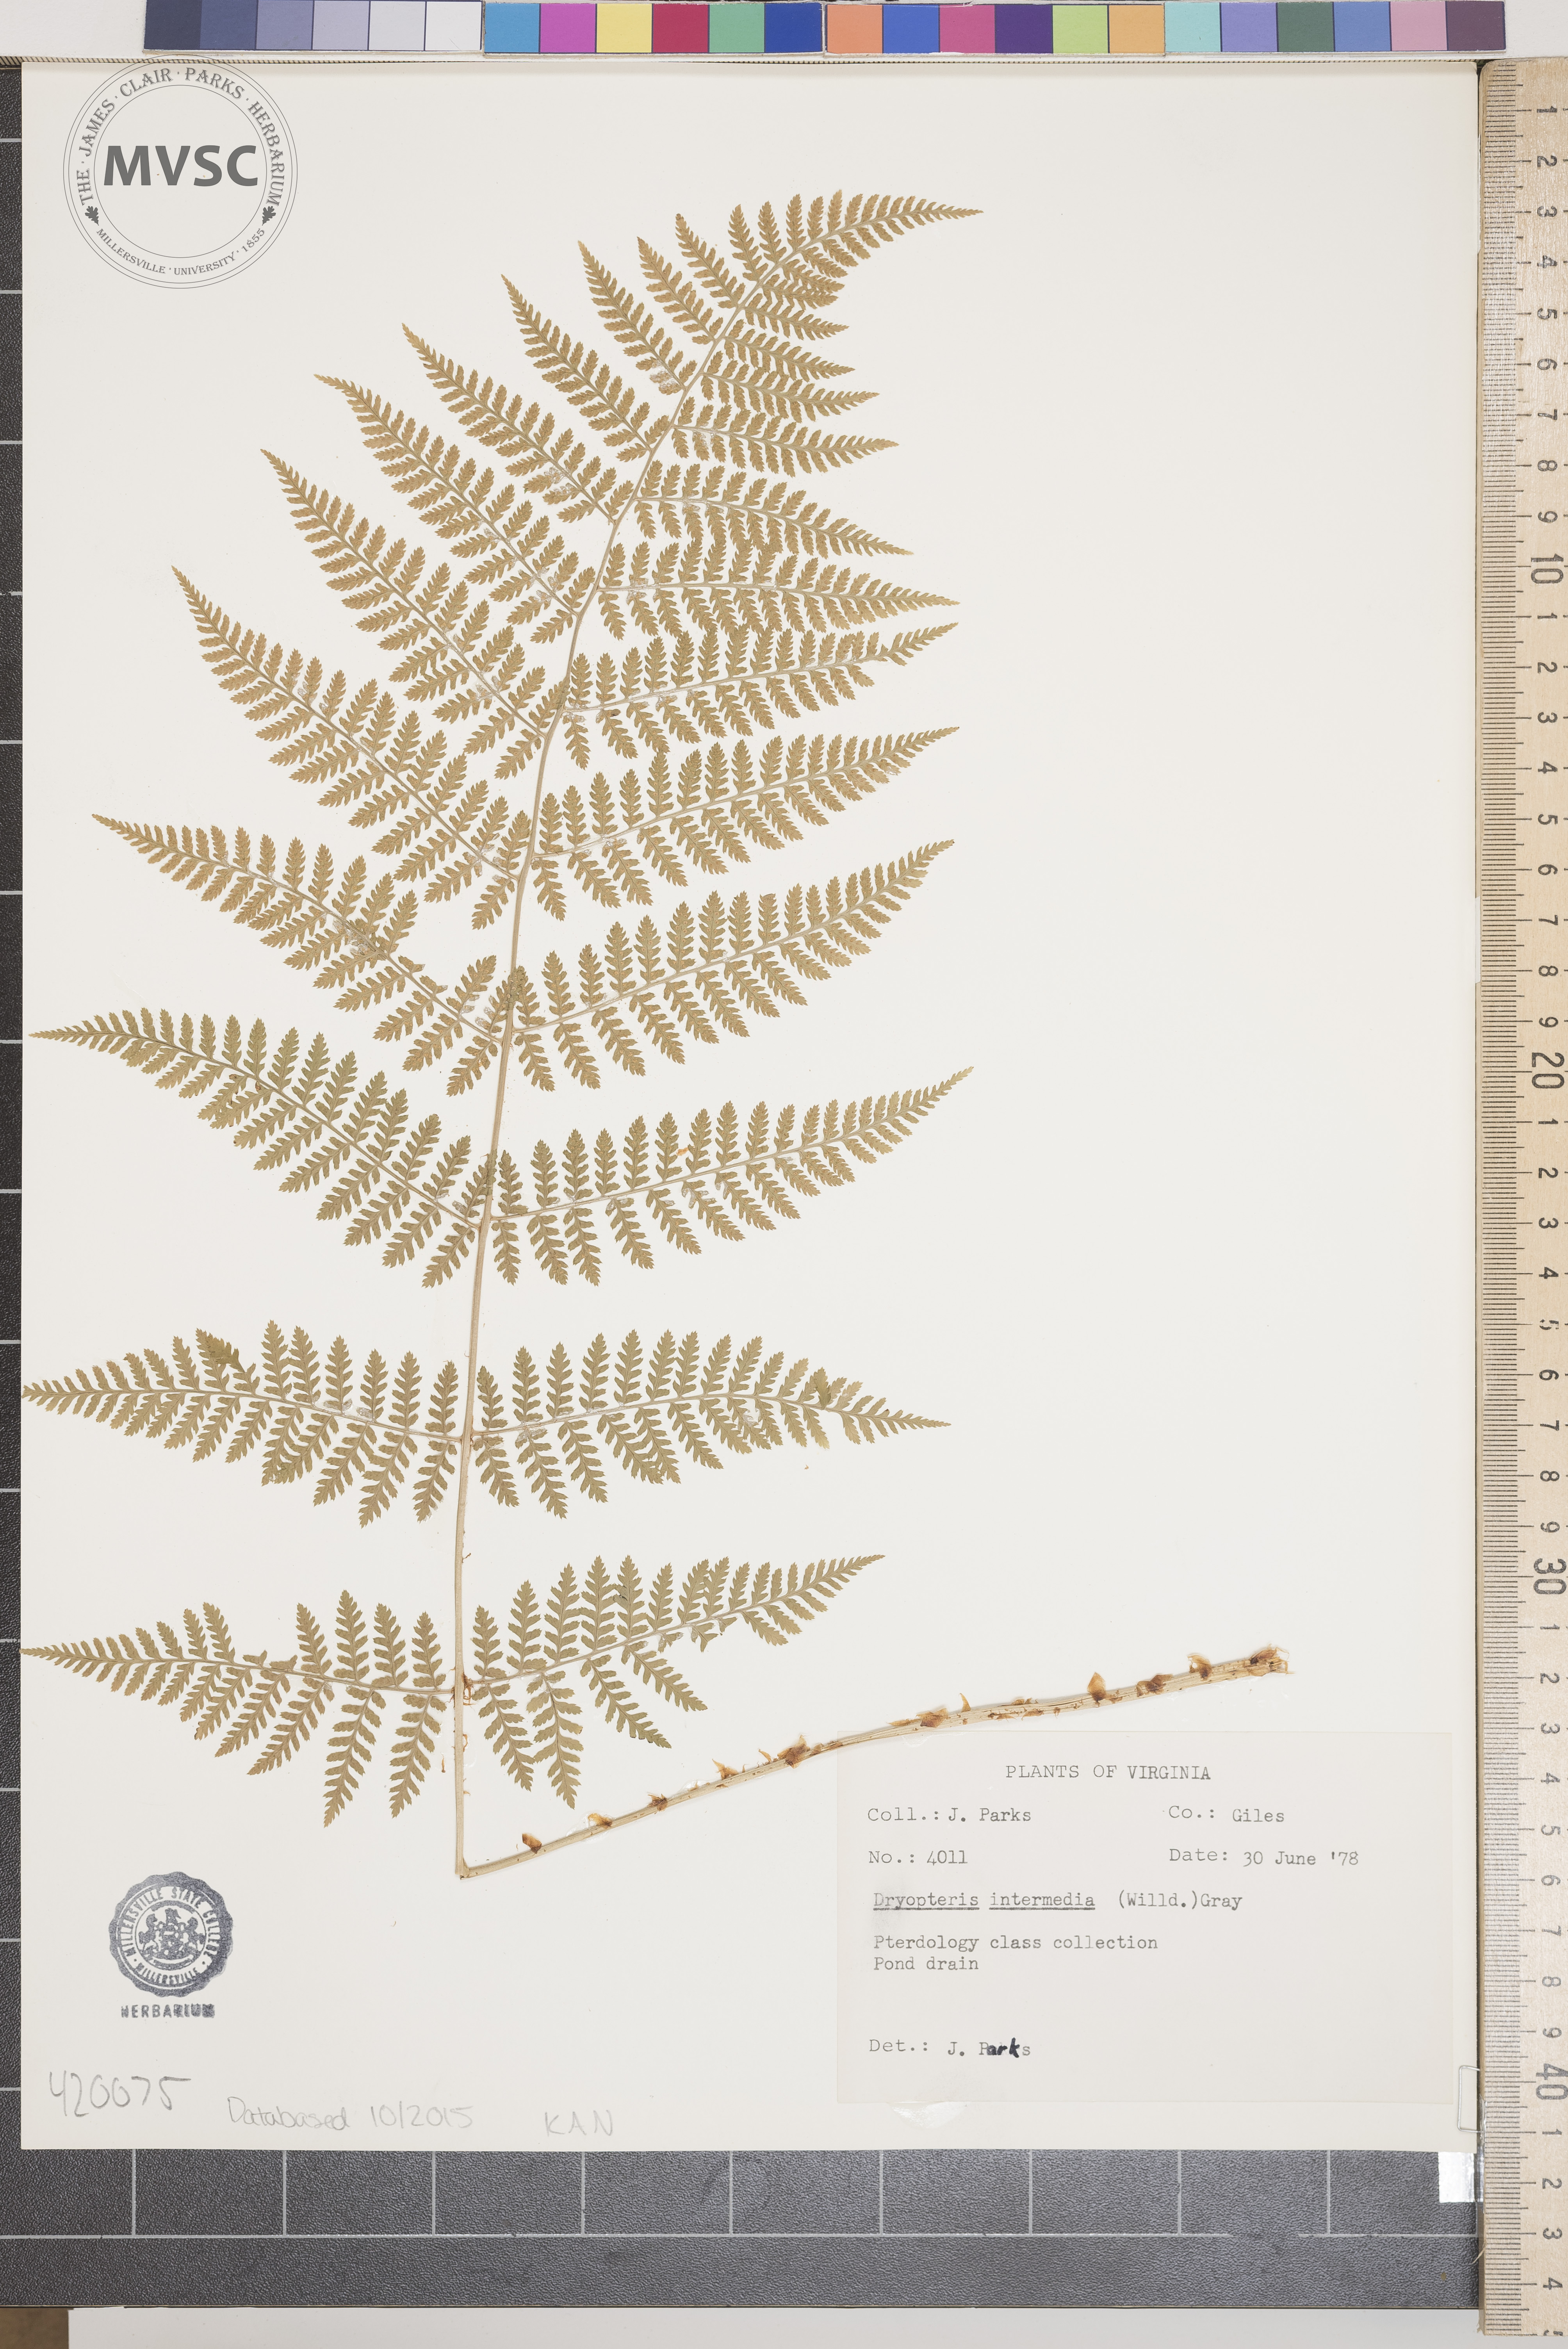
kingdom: Plantae
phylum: Tracheophyta
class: Polypodiopsida
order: Polypodiales
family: Dryopteridaceae
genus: Dryopteris
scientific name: Dryopteris intermedia
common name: Evergreen wood fern
